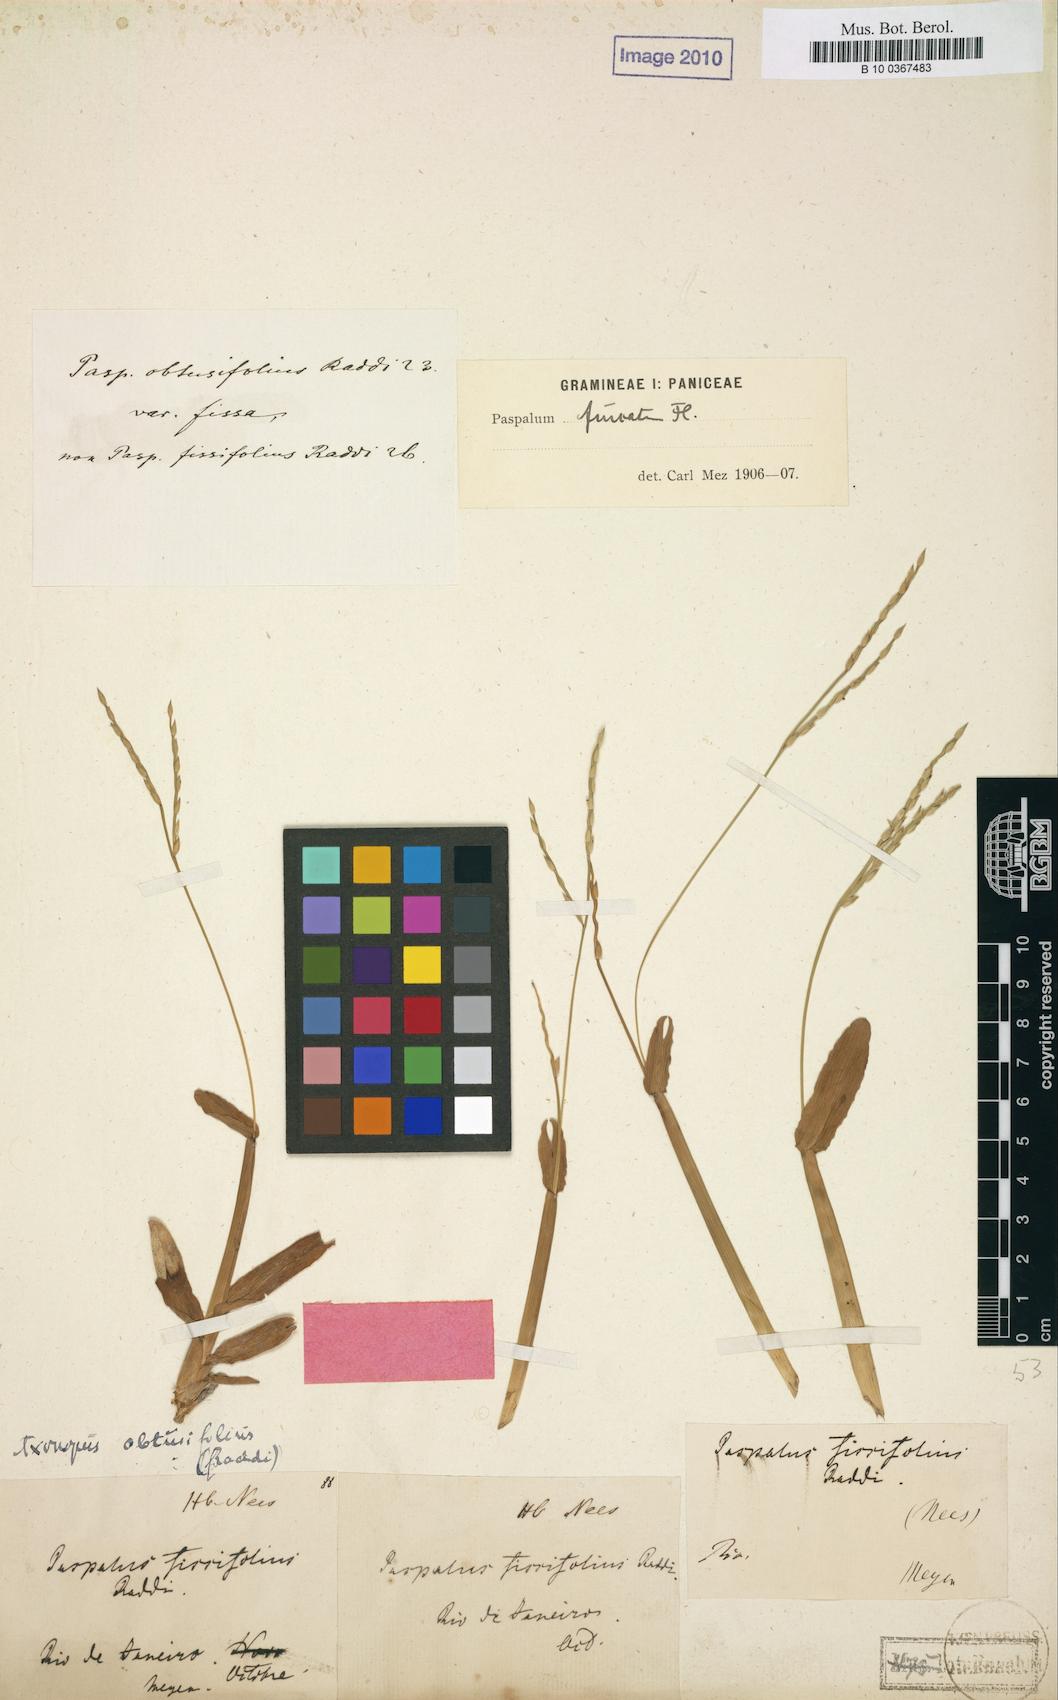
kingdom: Plantae
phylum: Tracheophyta
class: Liliopsida
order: Poales
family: Poaceae
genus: Axonopus
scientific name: Axonopus furcatus
